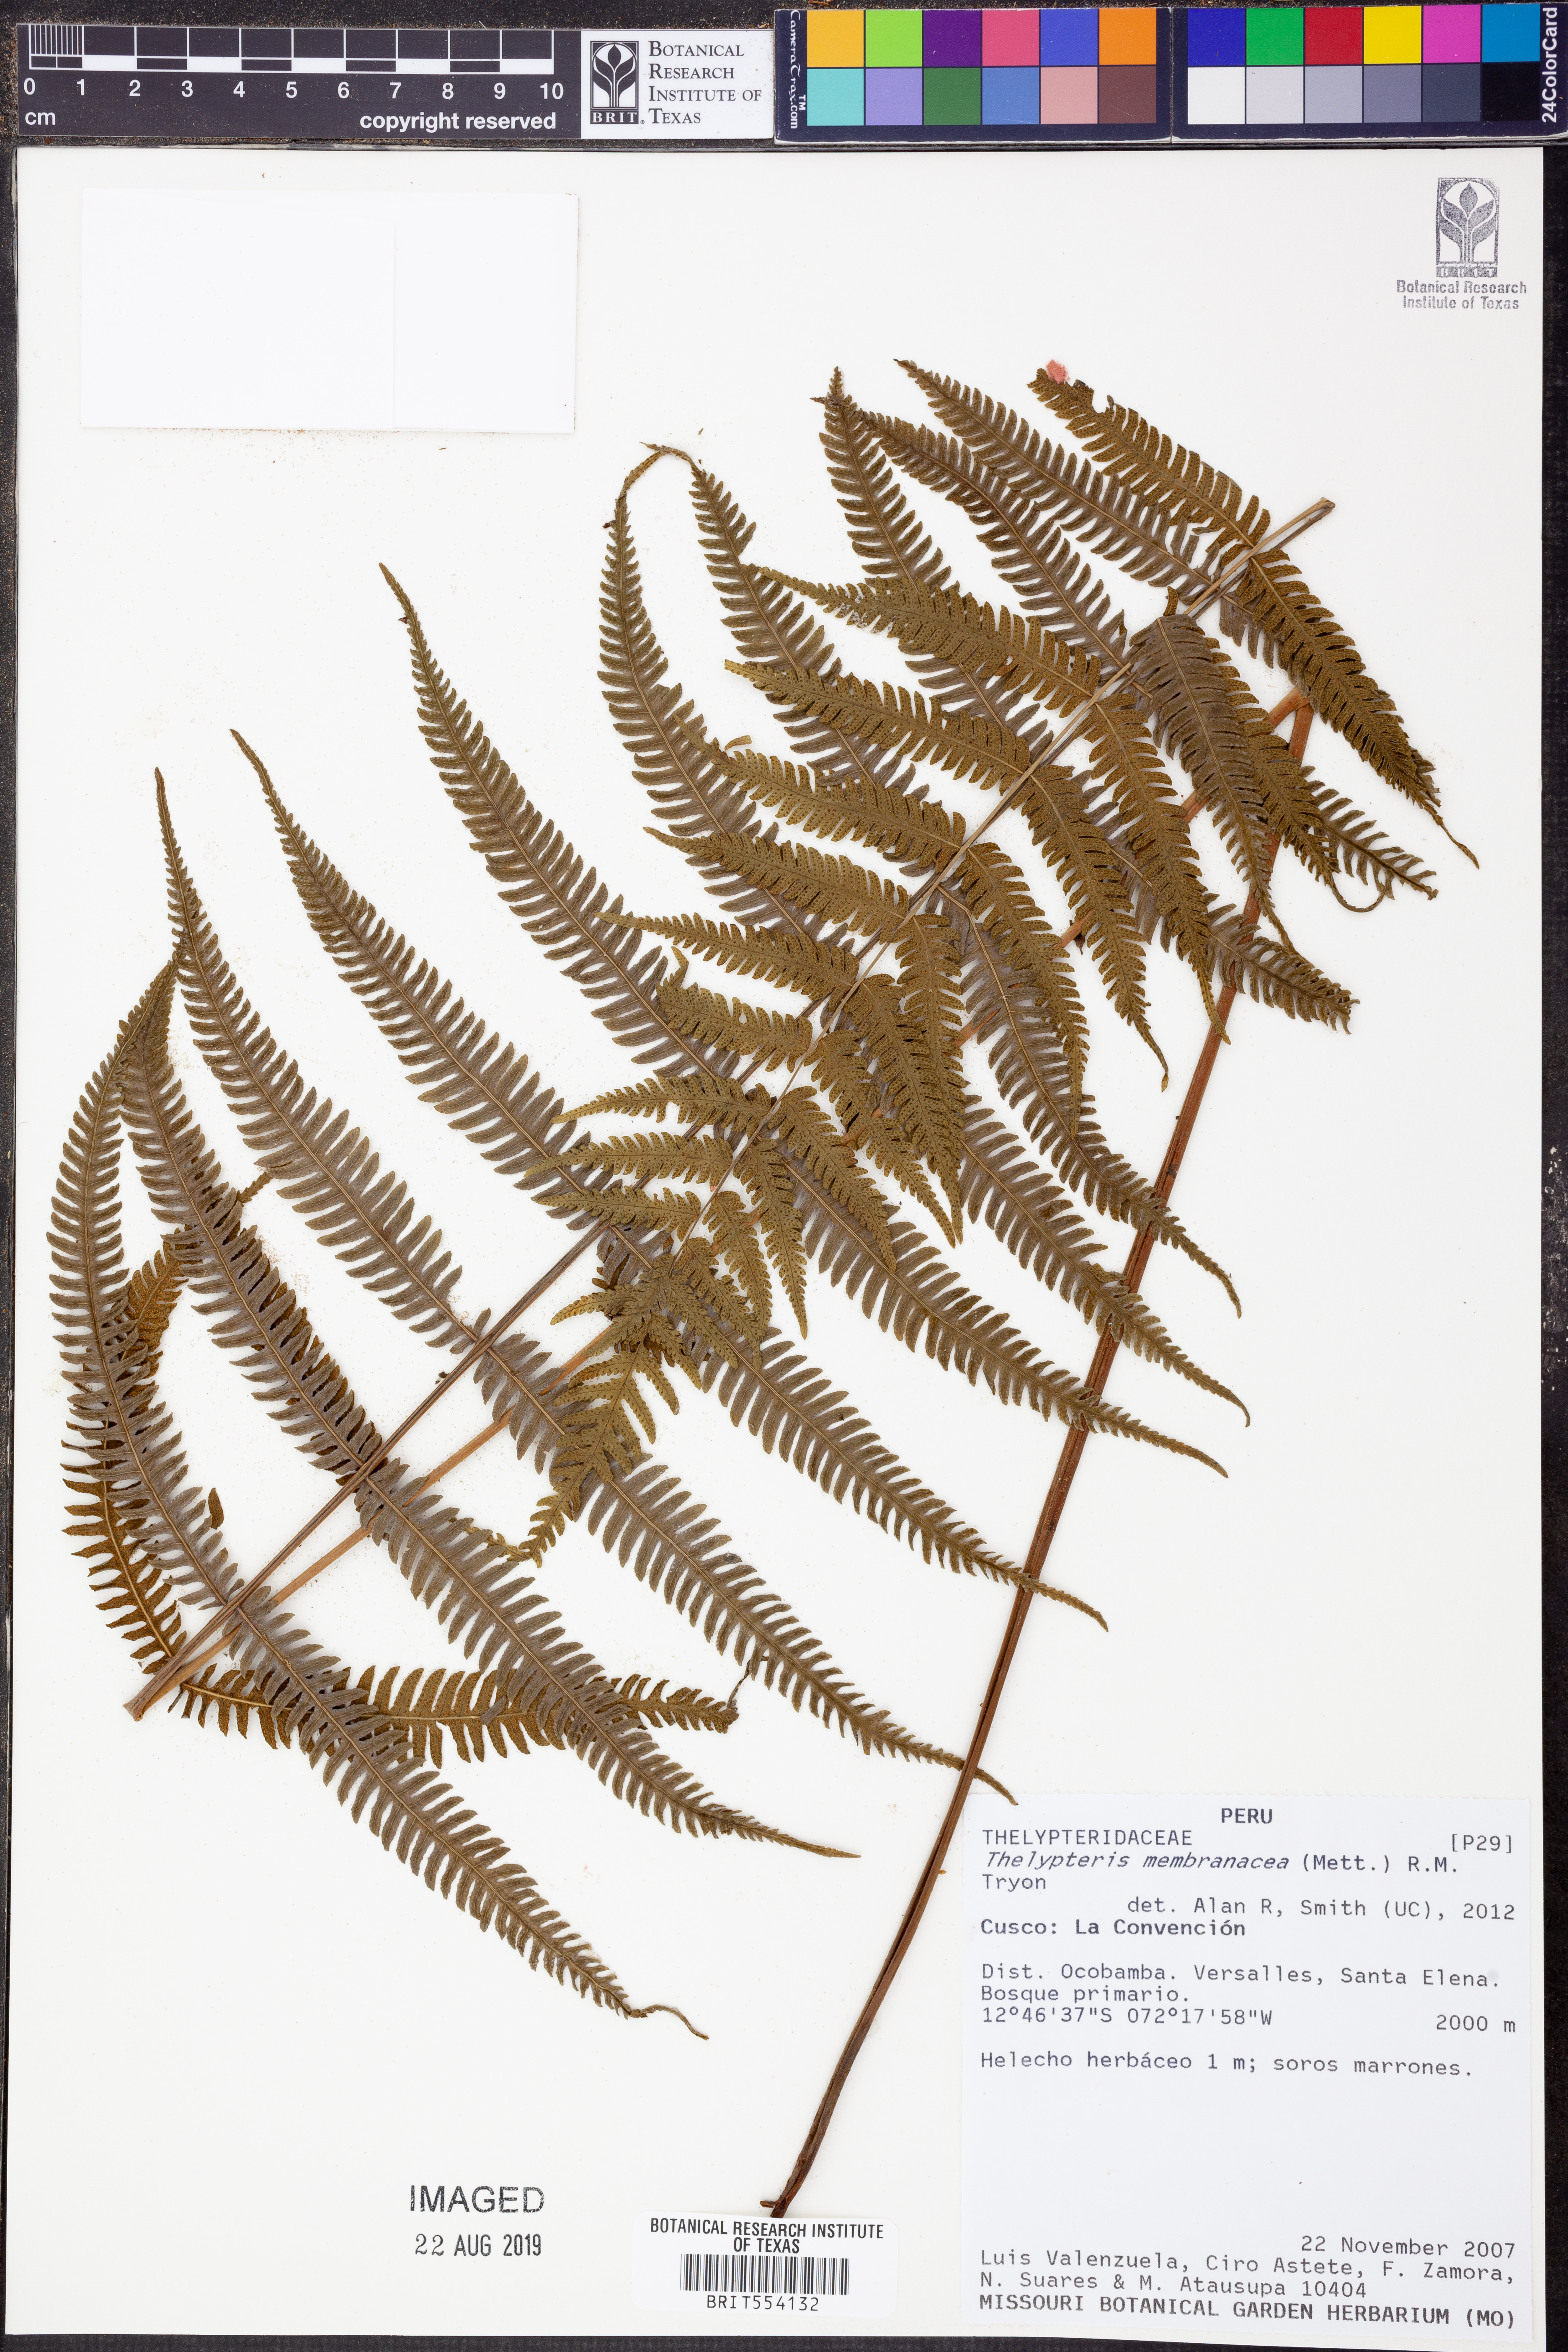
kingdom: Plantae
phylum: Tracheophyta
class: Polypodiopsida
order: Polypodiales
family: Thelypteridaceae
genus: Meniscium
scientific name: Meniscium membranaceum
